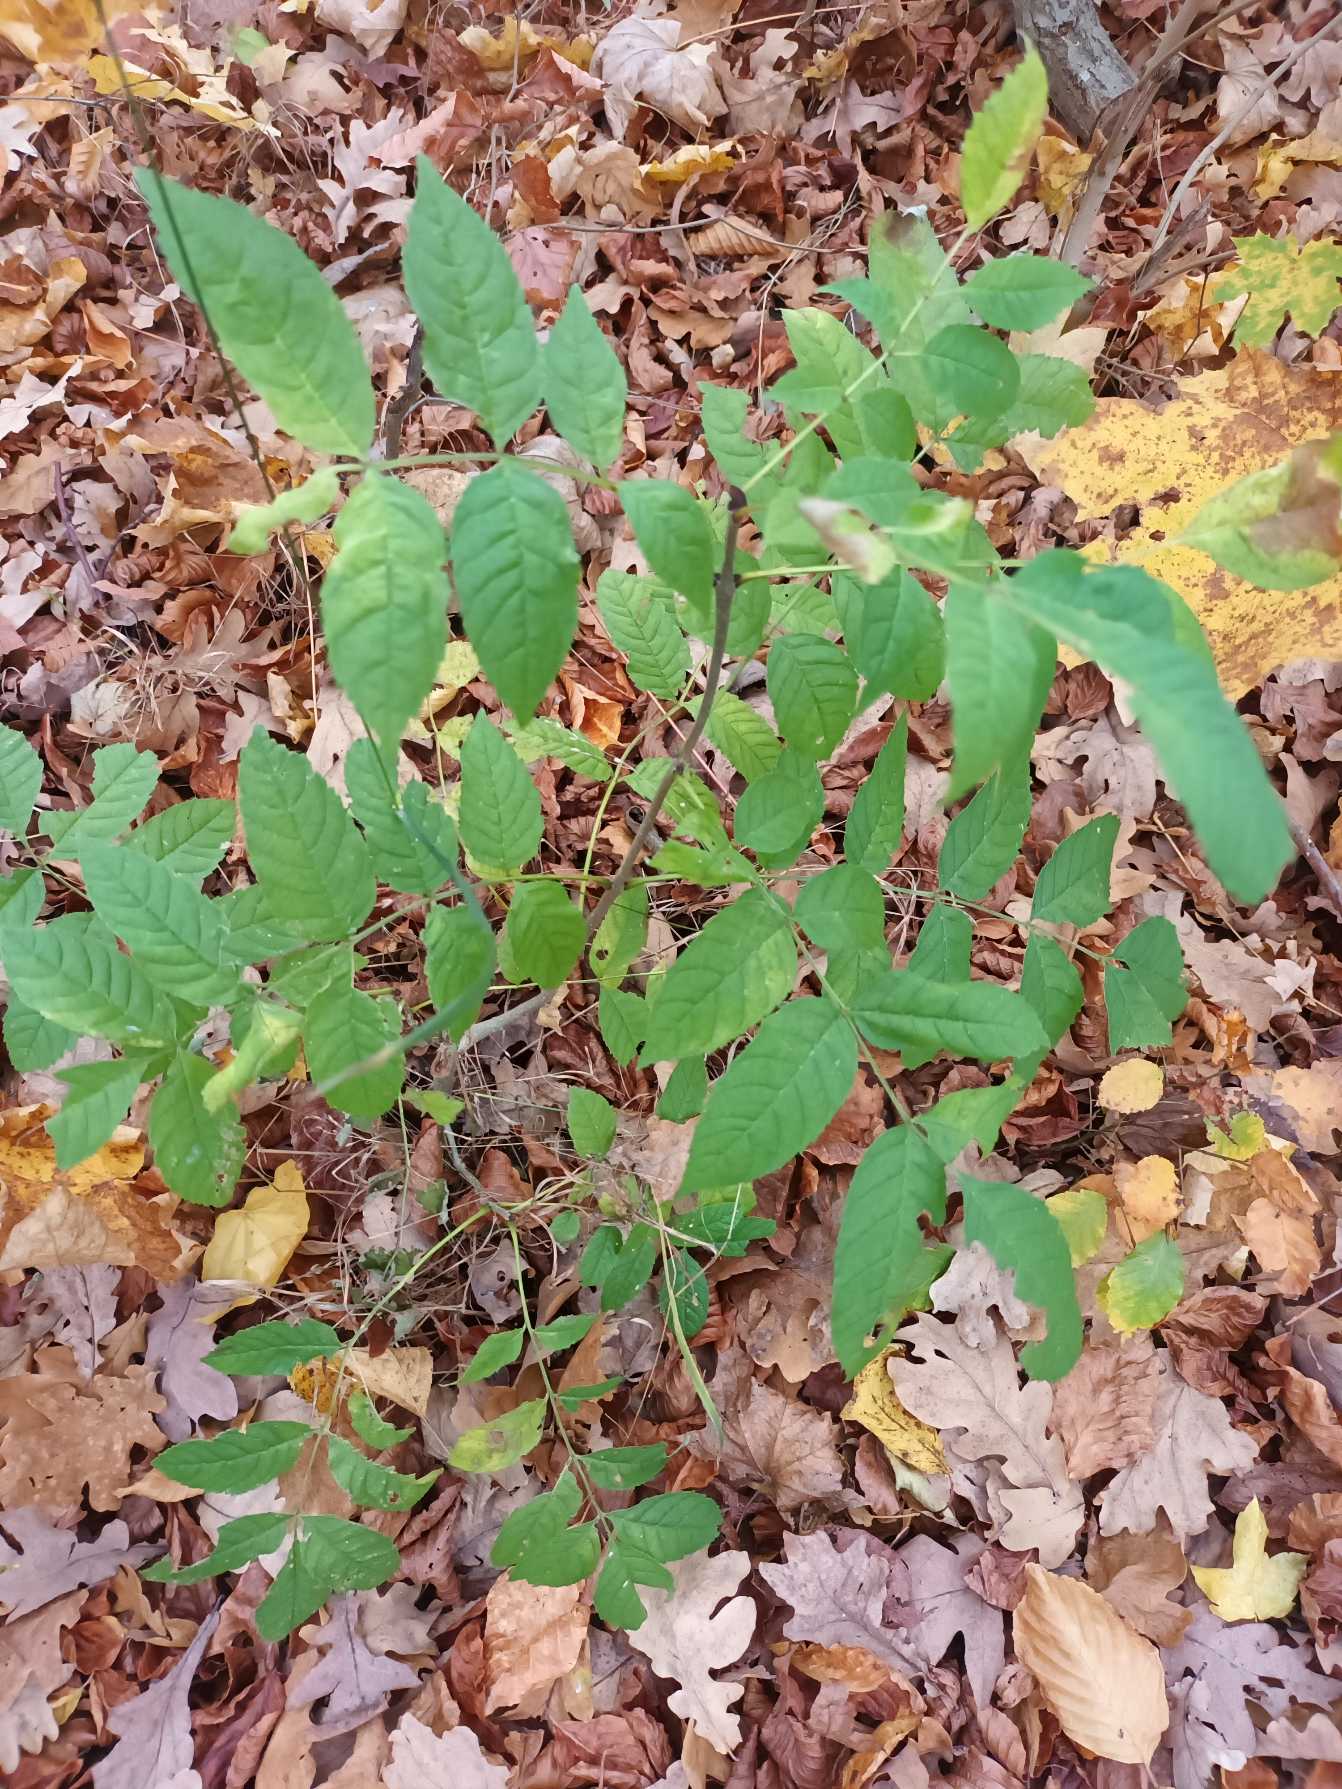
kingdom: Plantae
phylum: Tracheophyta
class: Magnoliopsida
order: Lamiales
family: Oleaceae
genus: Fraxinus
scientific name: Fraxinus excelsior
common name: Ask
